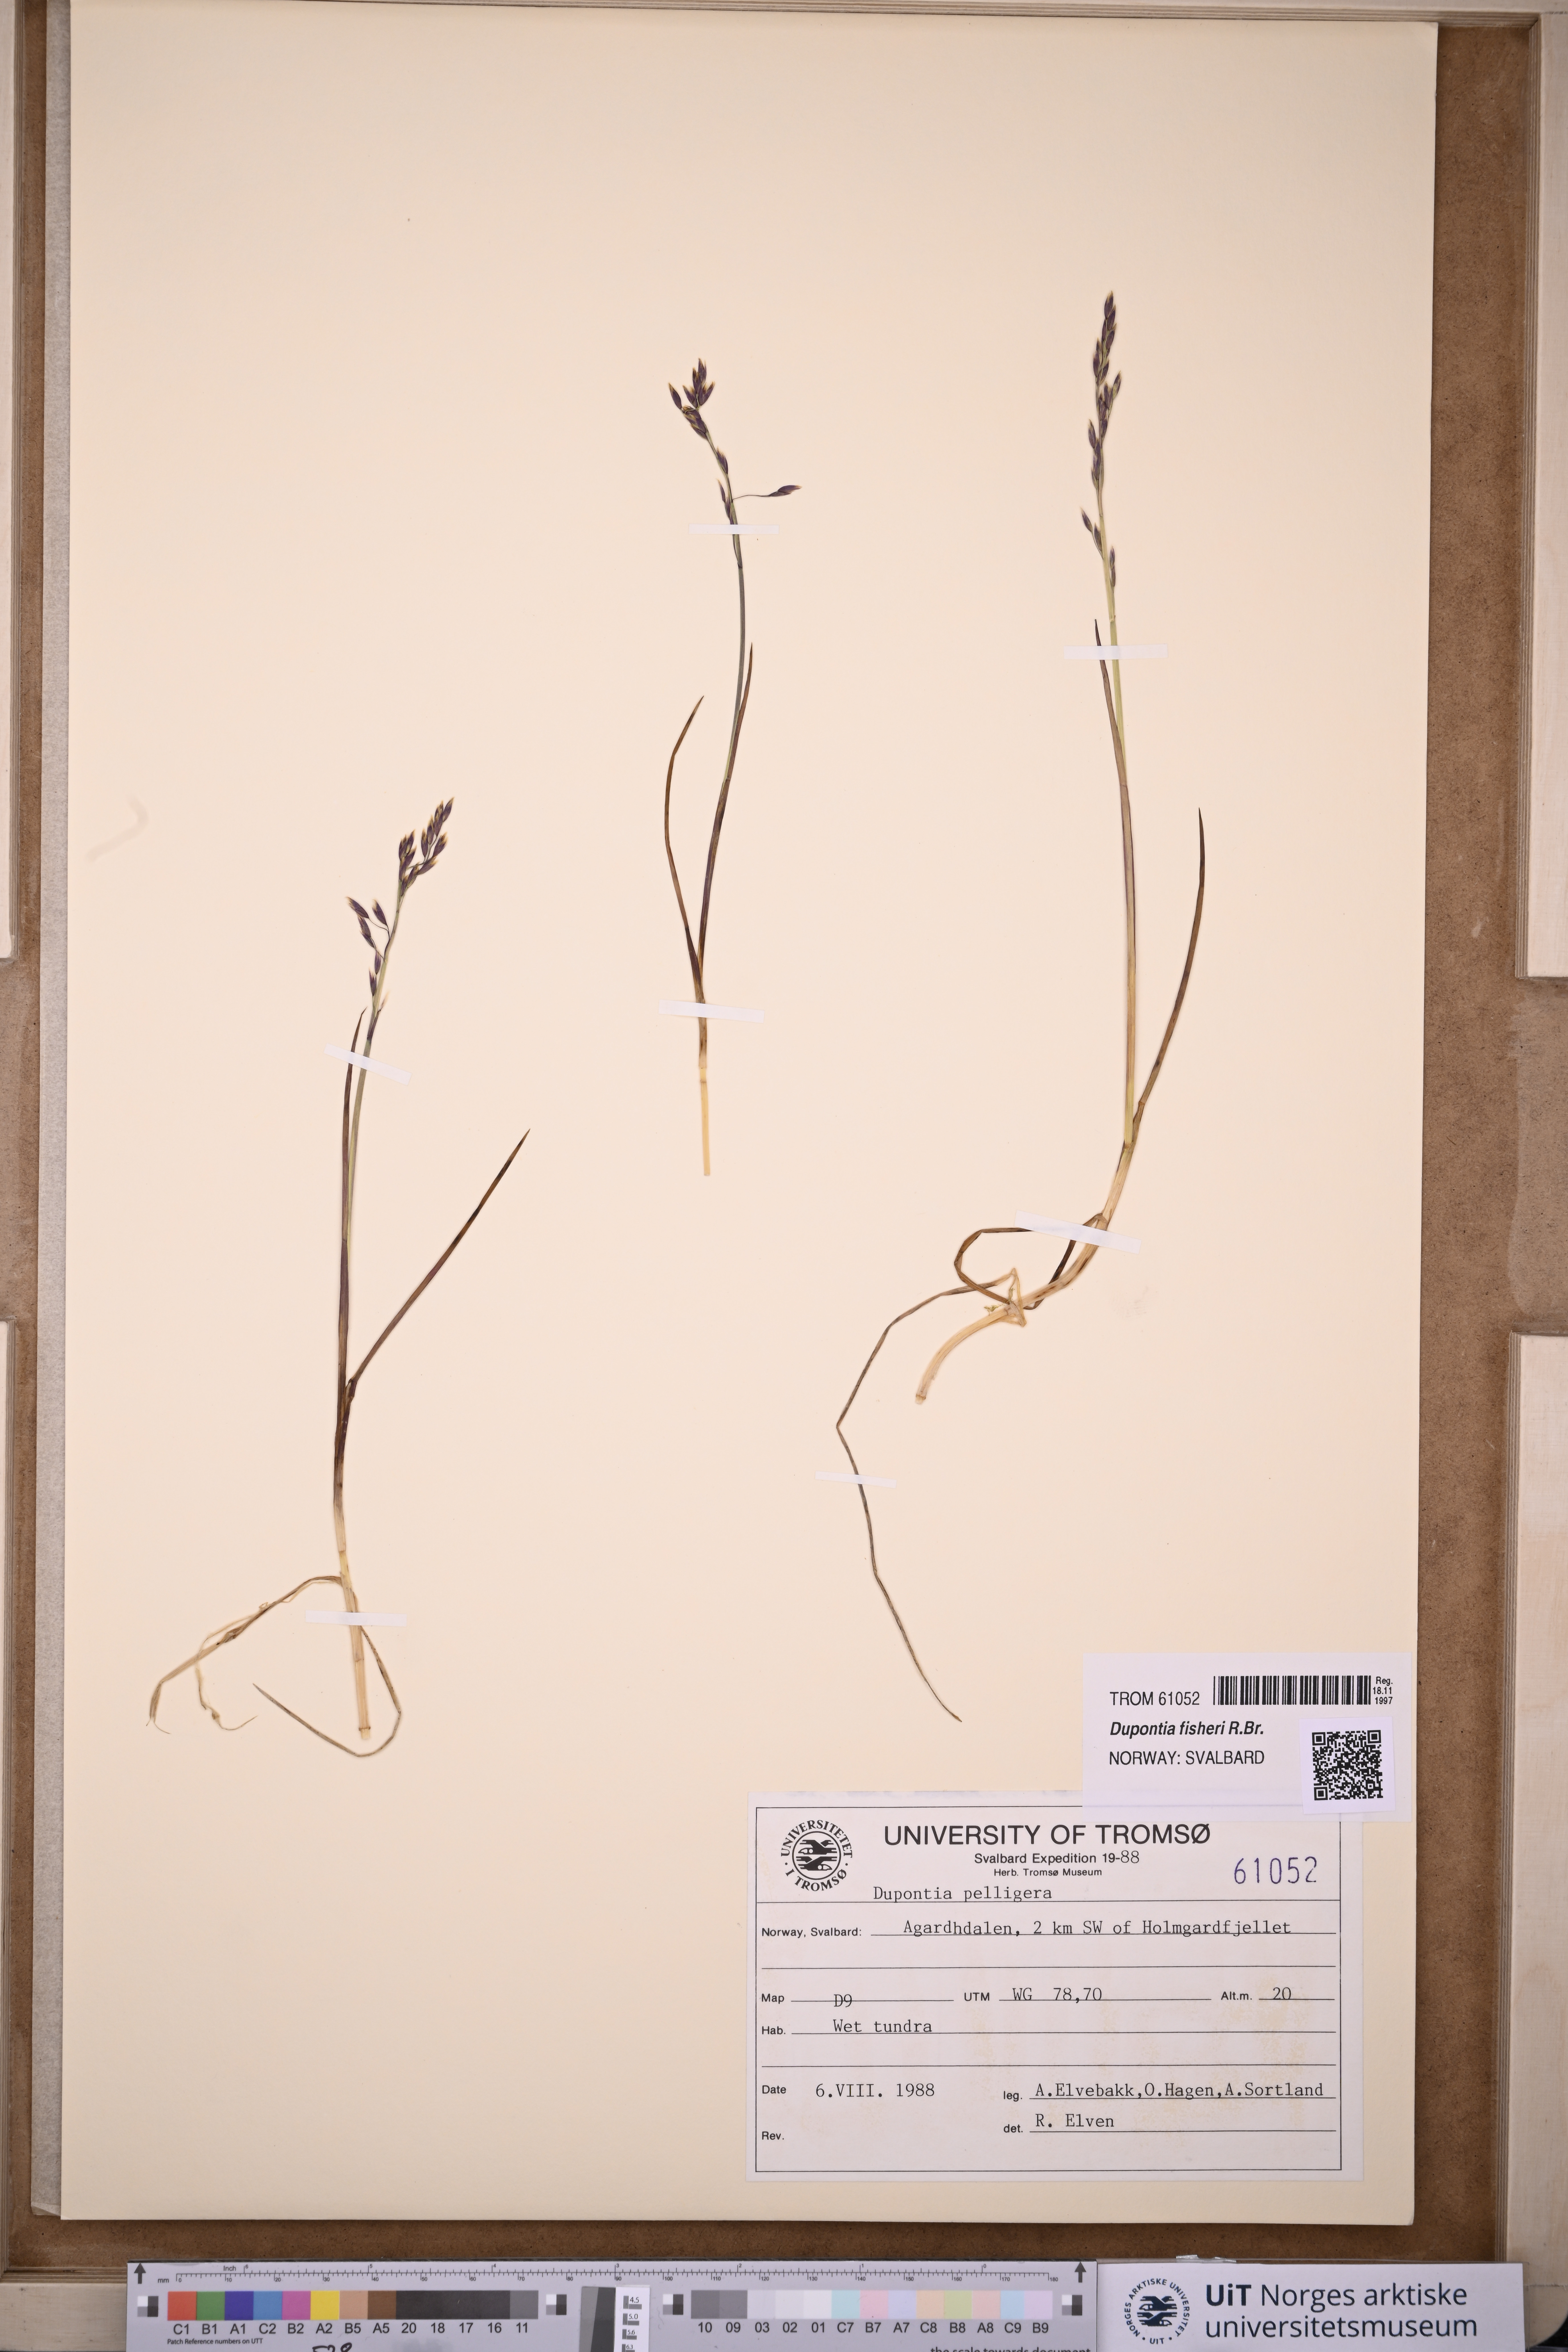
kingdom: Plantae
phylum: Tracheophyta
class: Liliopsida
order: Poales
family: Poaceae
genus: Dupontia
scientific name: Dupontia fisheri
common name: Tundra grass
